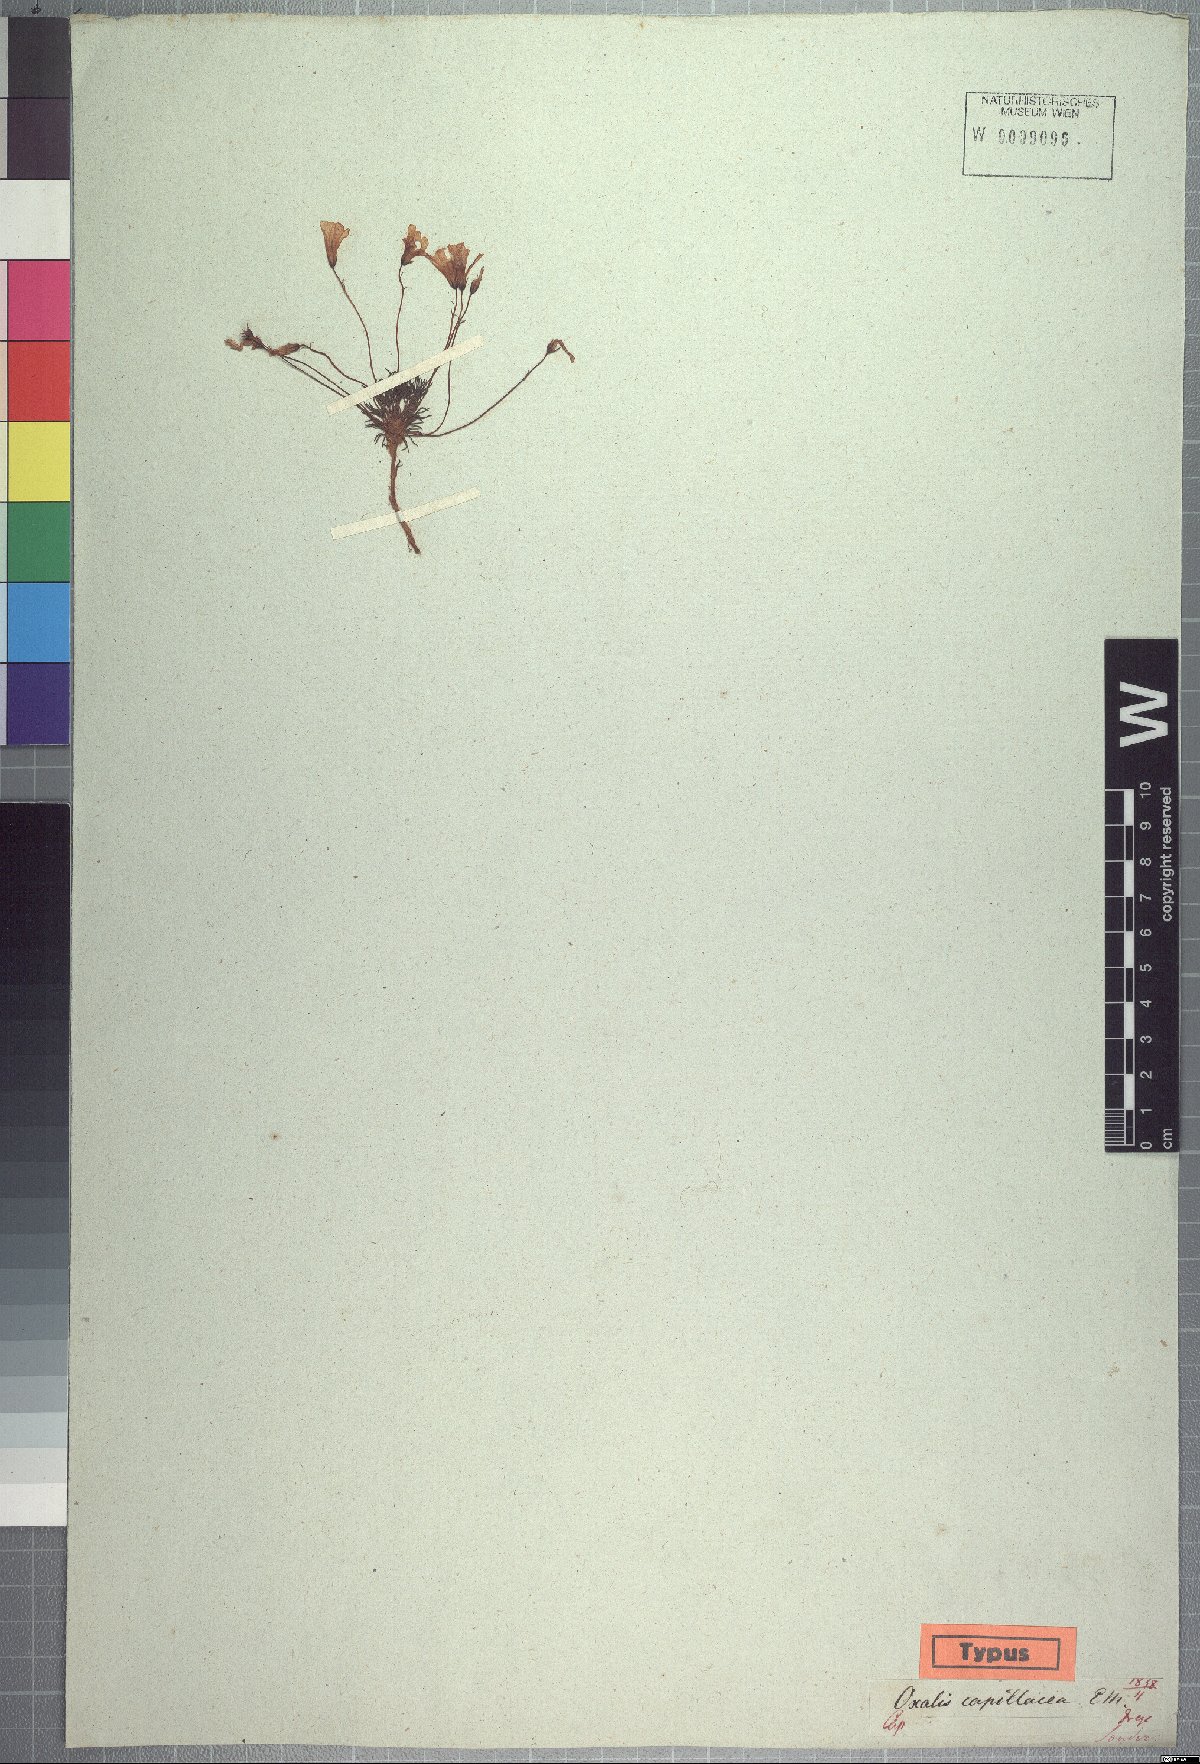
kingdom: Plantae
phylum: Tracheophyta
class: Magnoliopsida
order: Oxalidales
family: Oxalidaceae
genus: Oxalis
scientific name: Oxalis capillacea
